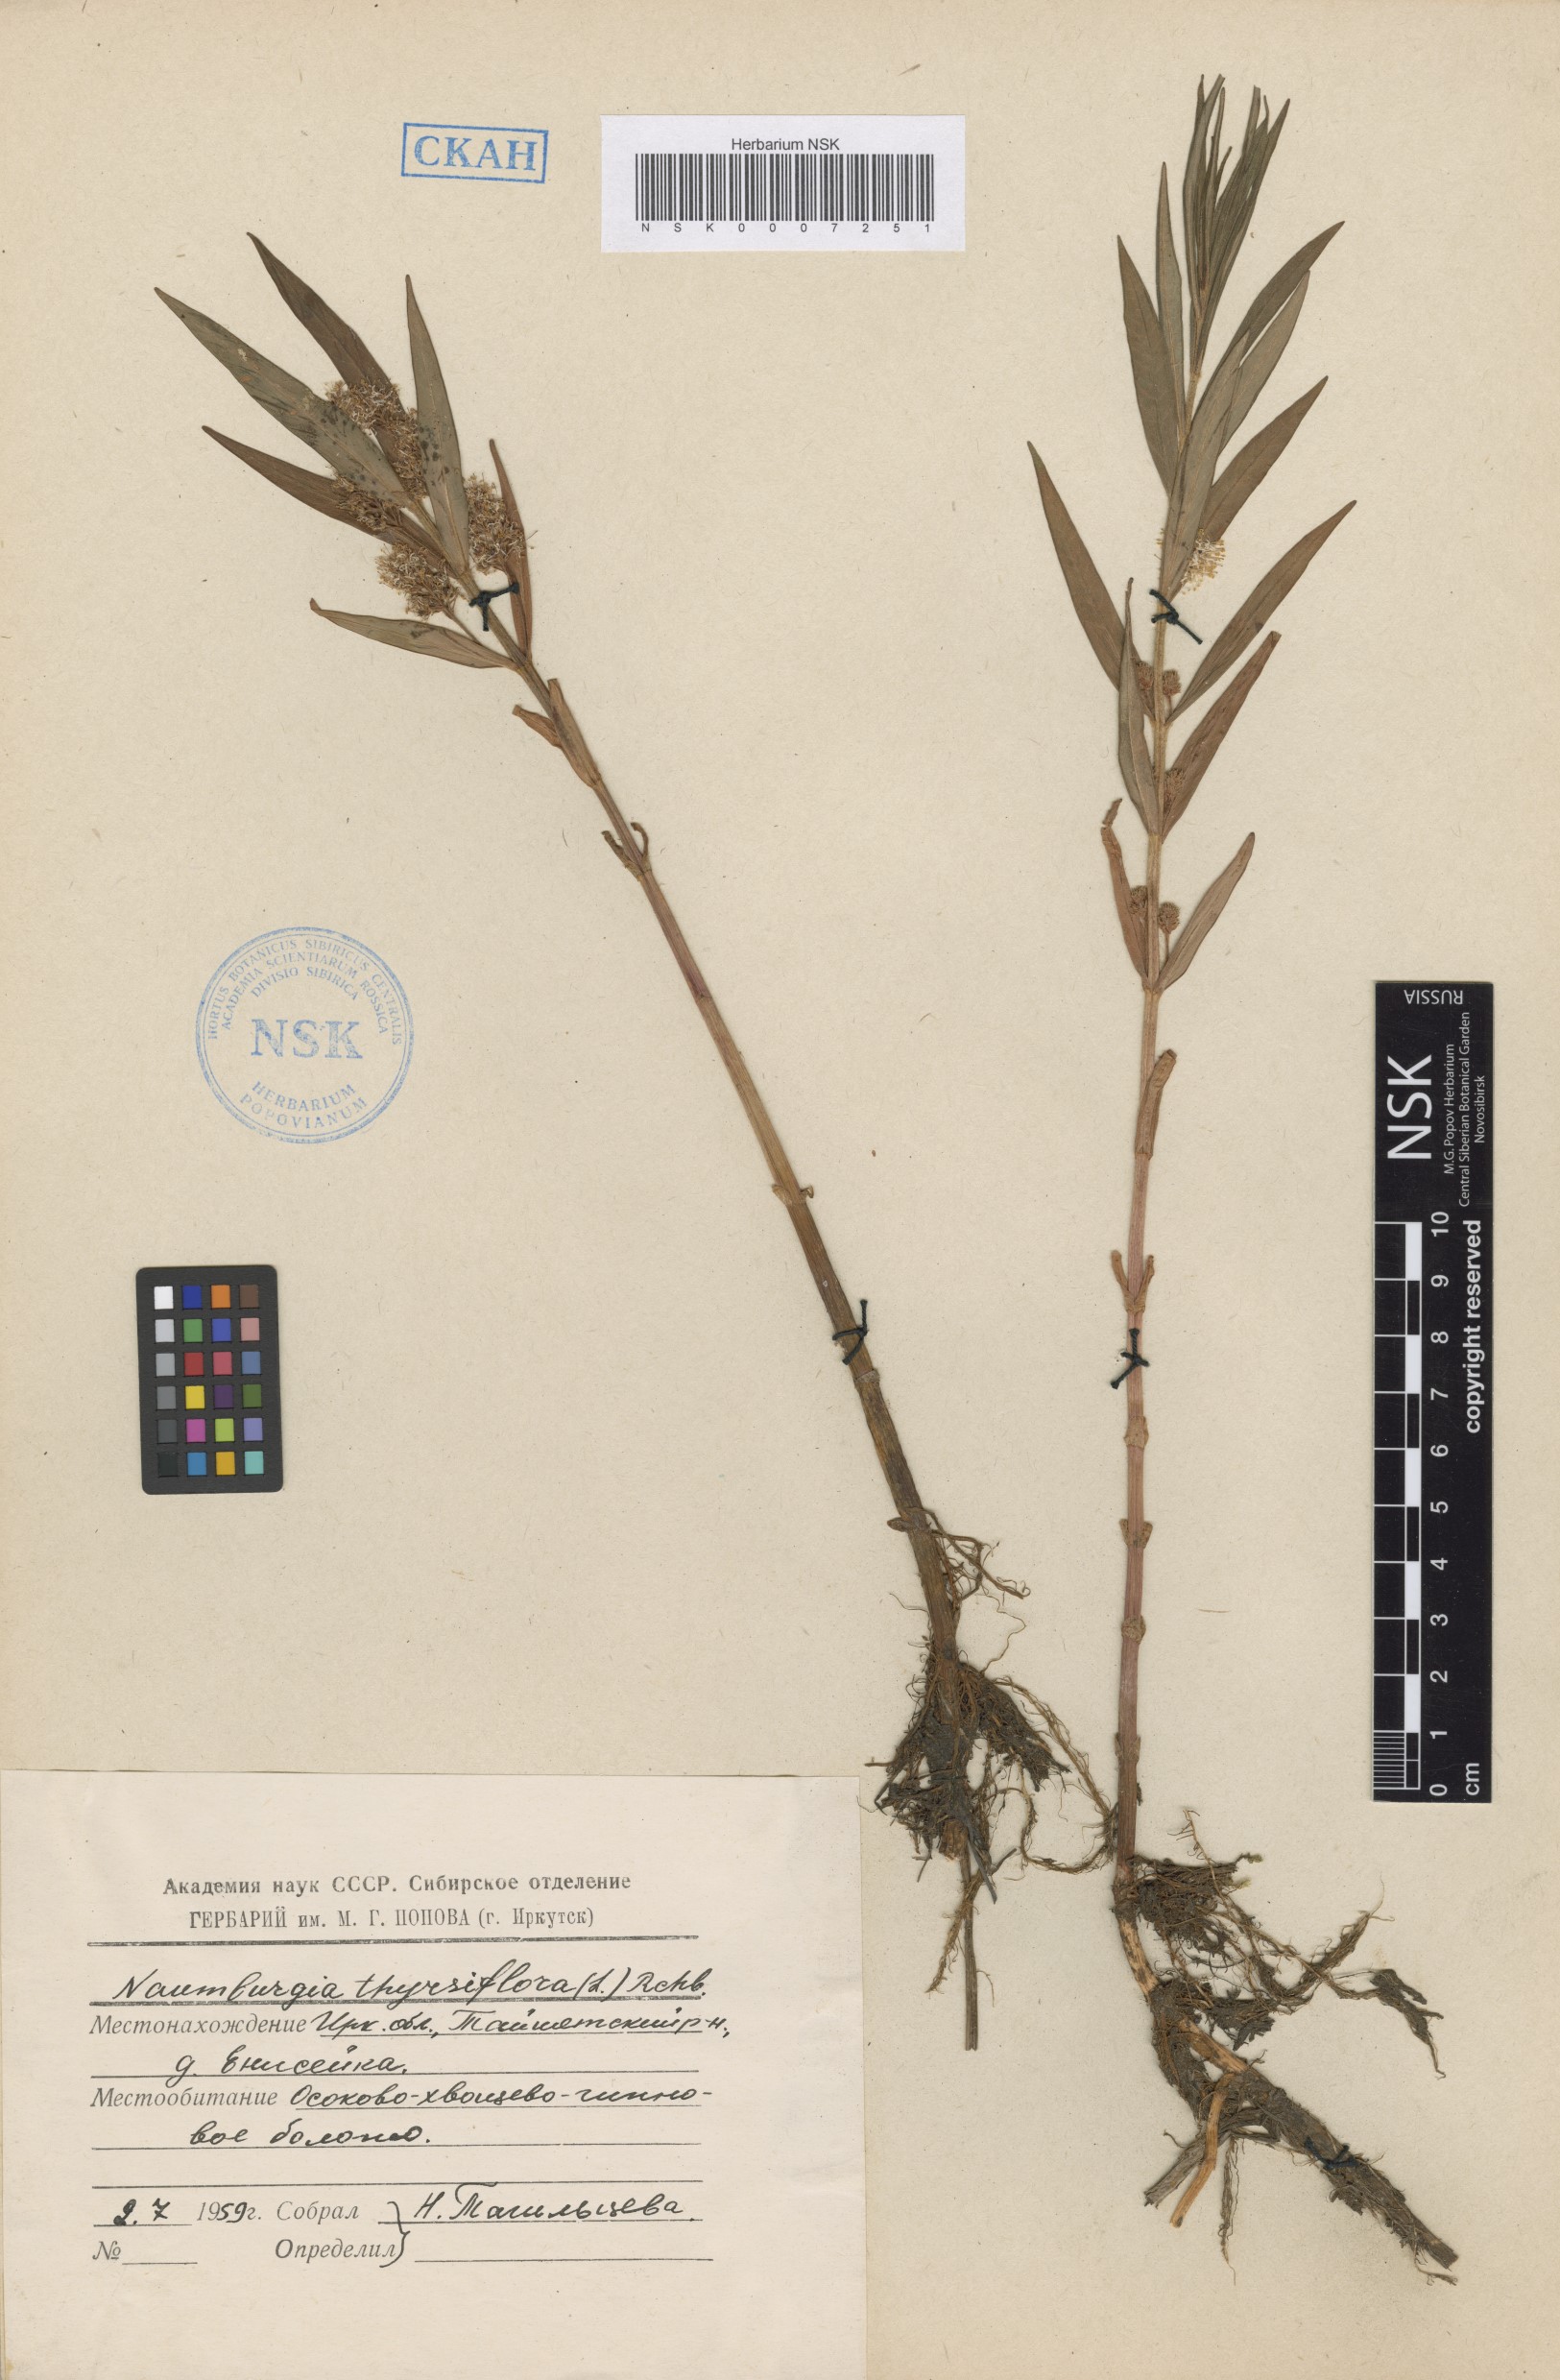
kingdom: Plantae
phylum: Tracheophyta
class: Magnoliopsida
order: Ericales
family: Primulaceae
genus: Lysimachia
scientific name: Lysimachia thyrsiflora
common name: Tufted loosestrife
